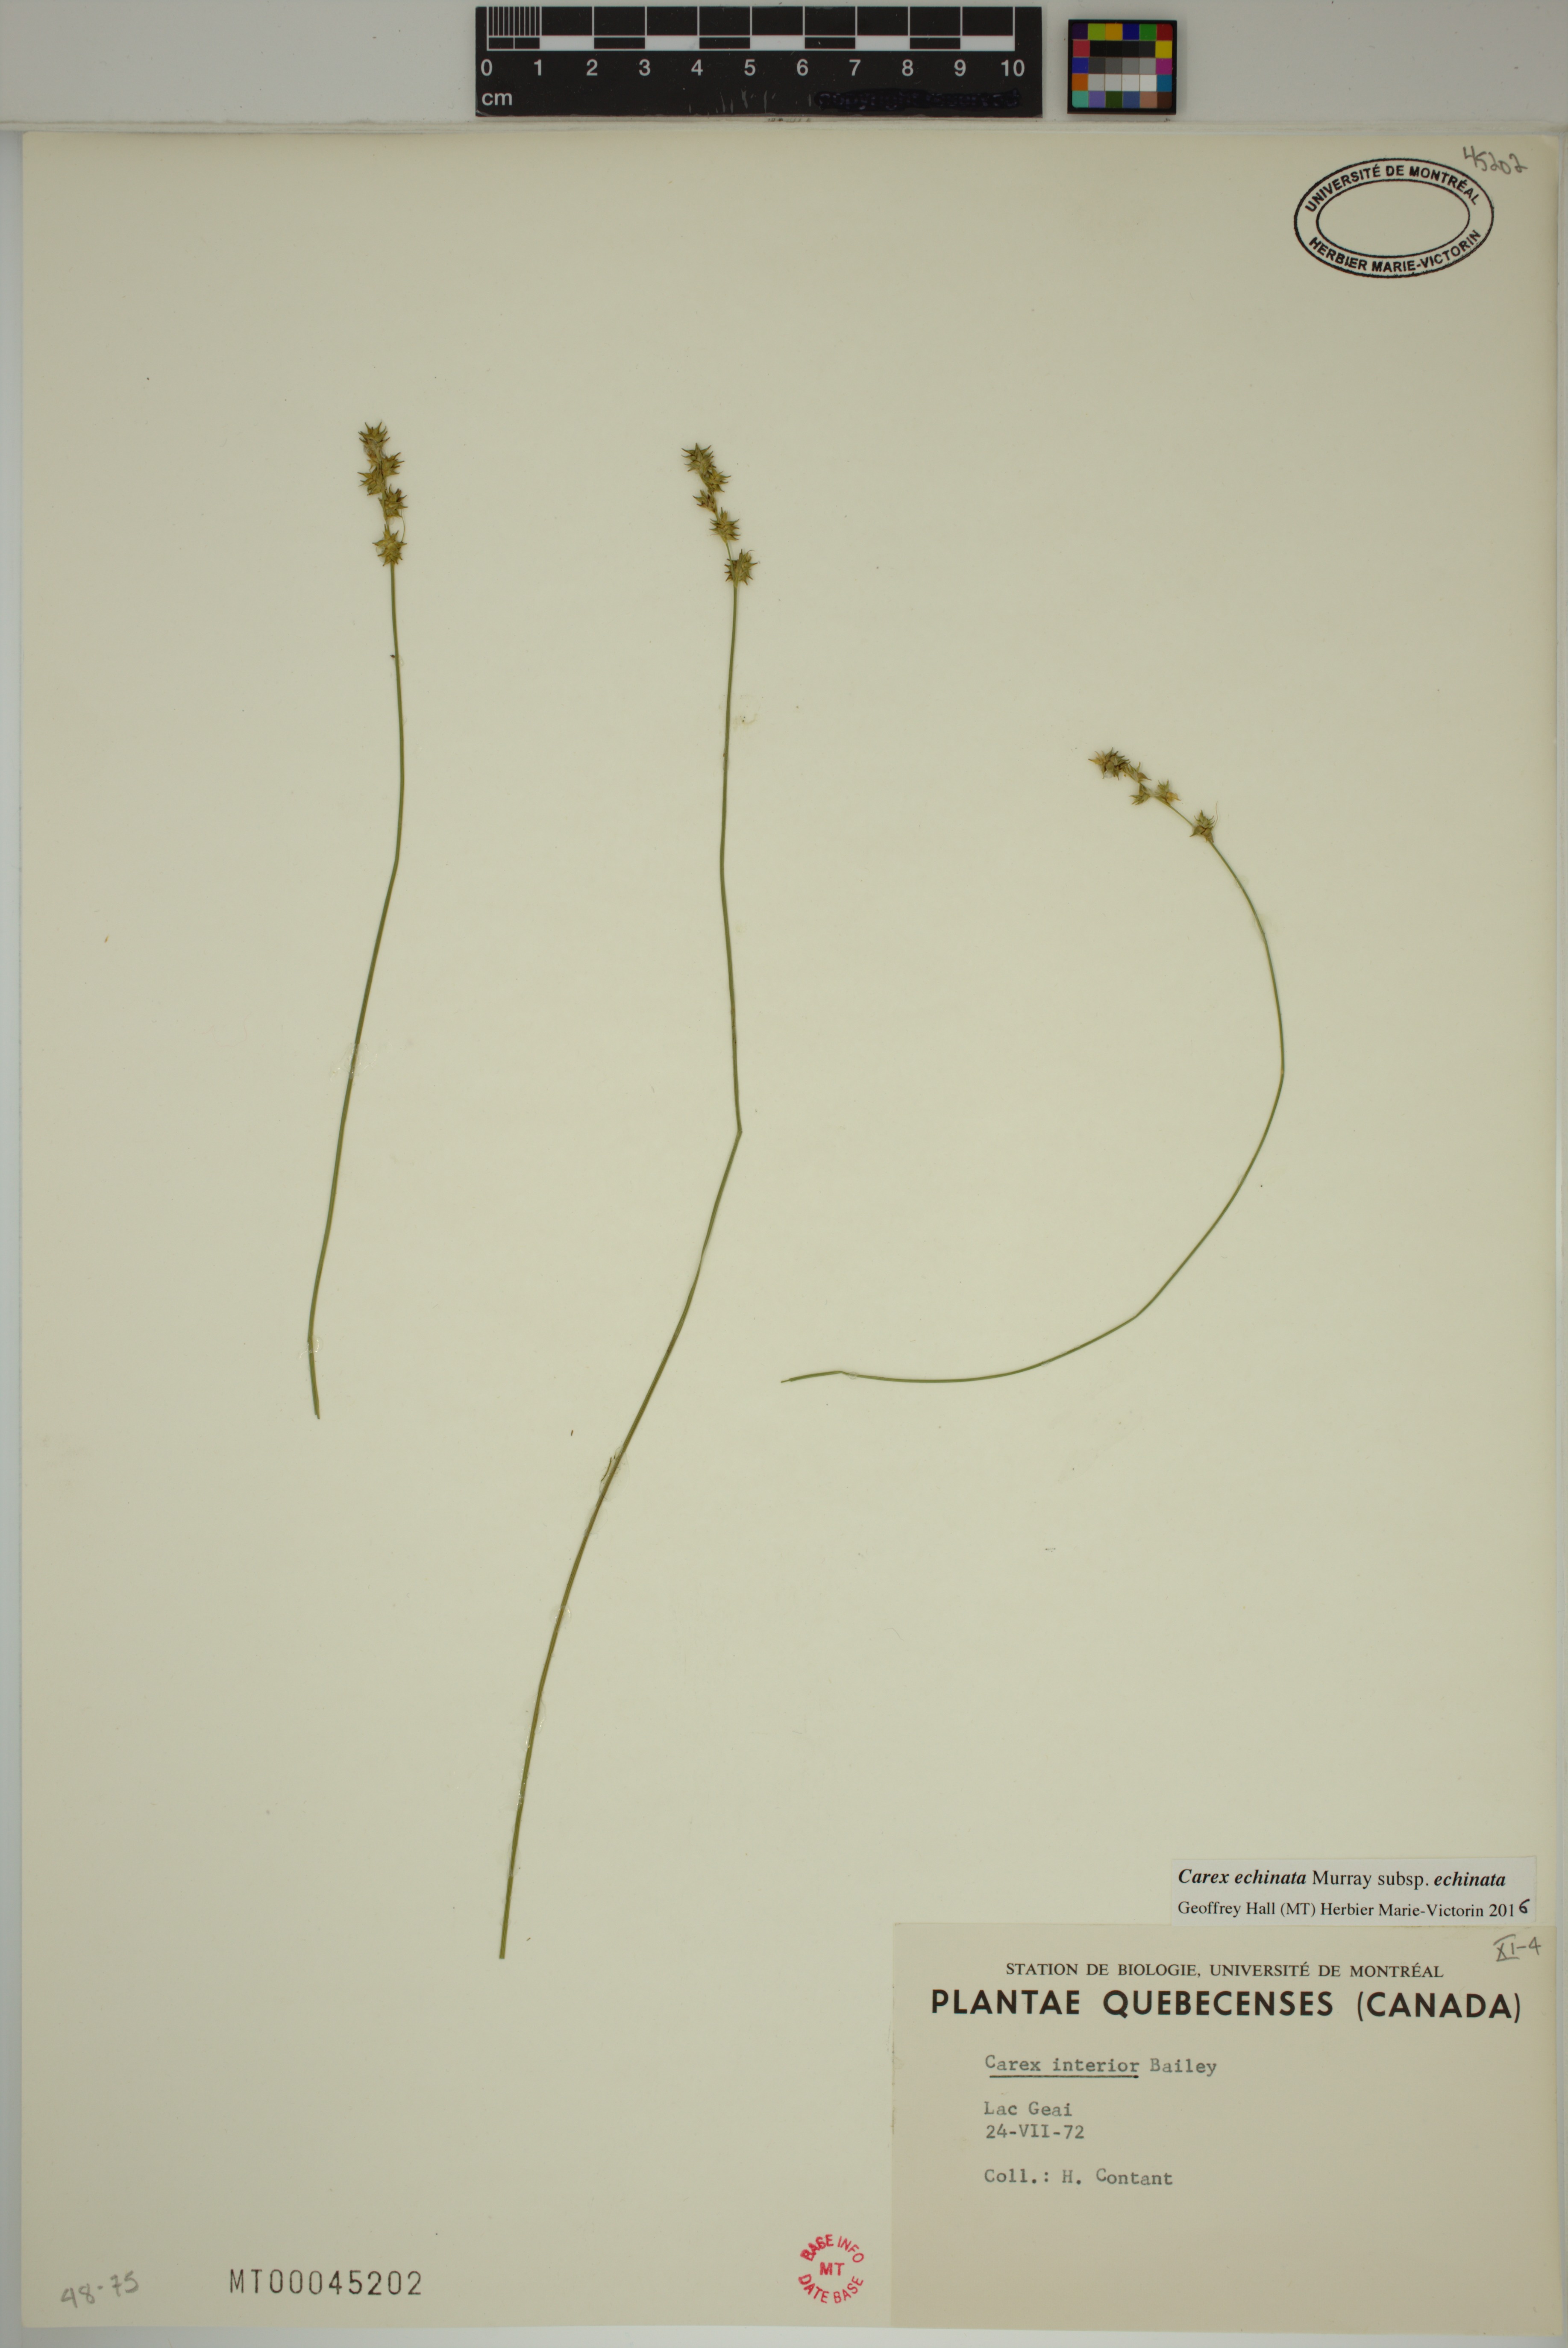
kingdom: Plantae
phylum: Tracheophyta
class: Liliopsida
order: Poales
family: Cyperaceae
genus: Carex
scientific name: Carex echinata
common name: Star sedge
